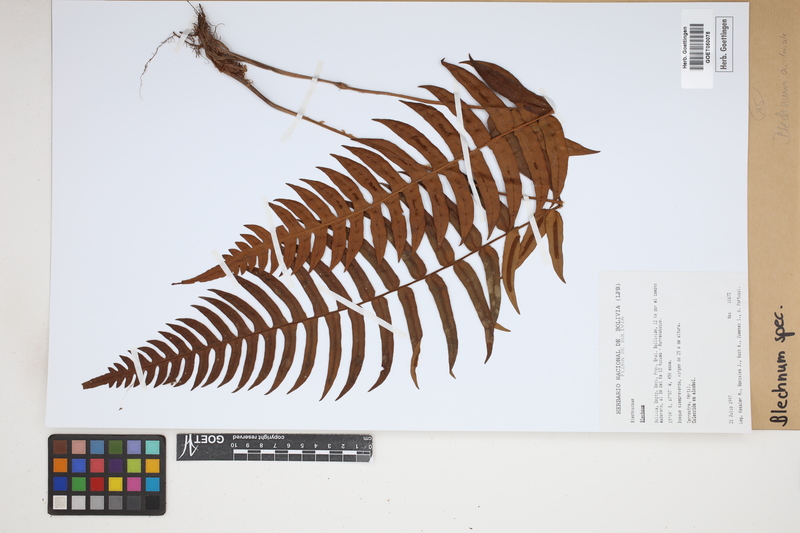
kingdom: Plantae
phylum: Tracheophyta
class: Polypodiopsida
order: Polypodiales
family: Blechnaceae
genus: Blechnum
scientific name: Blechnum
